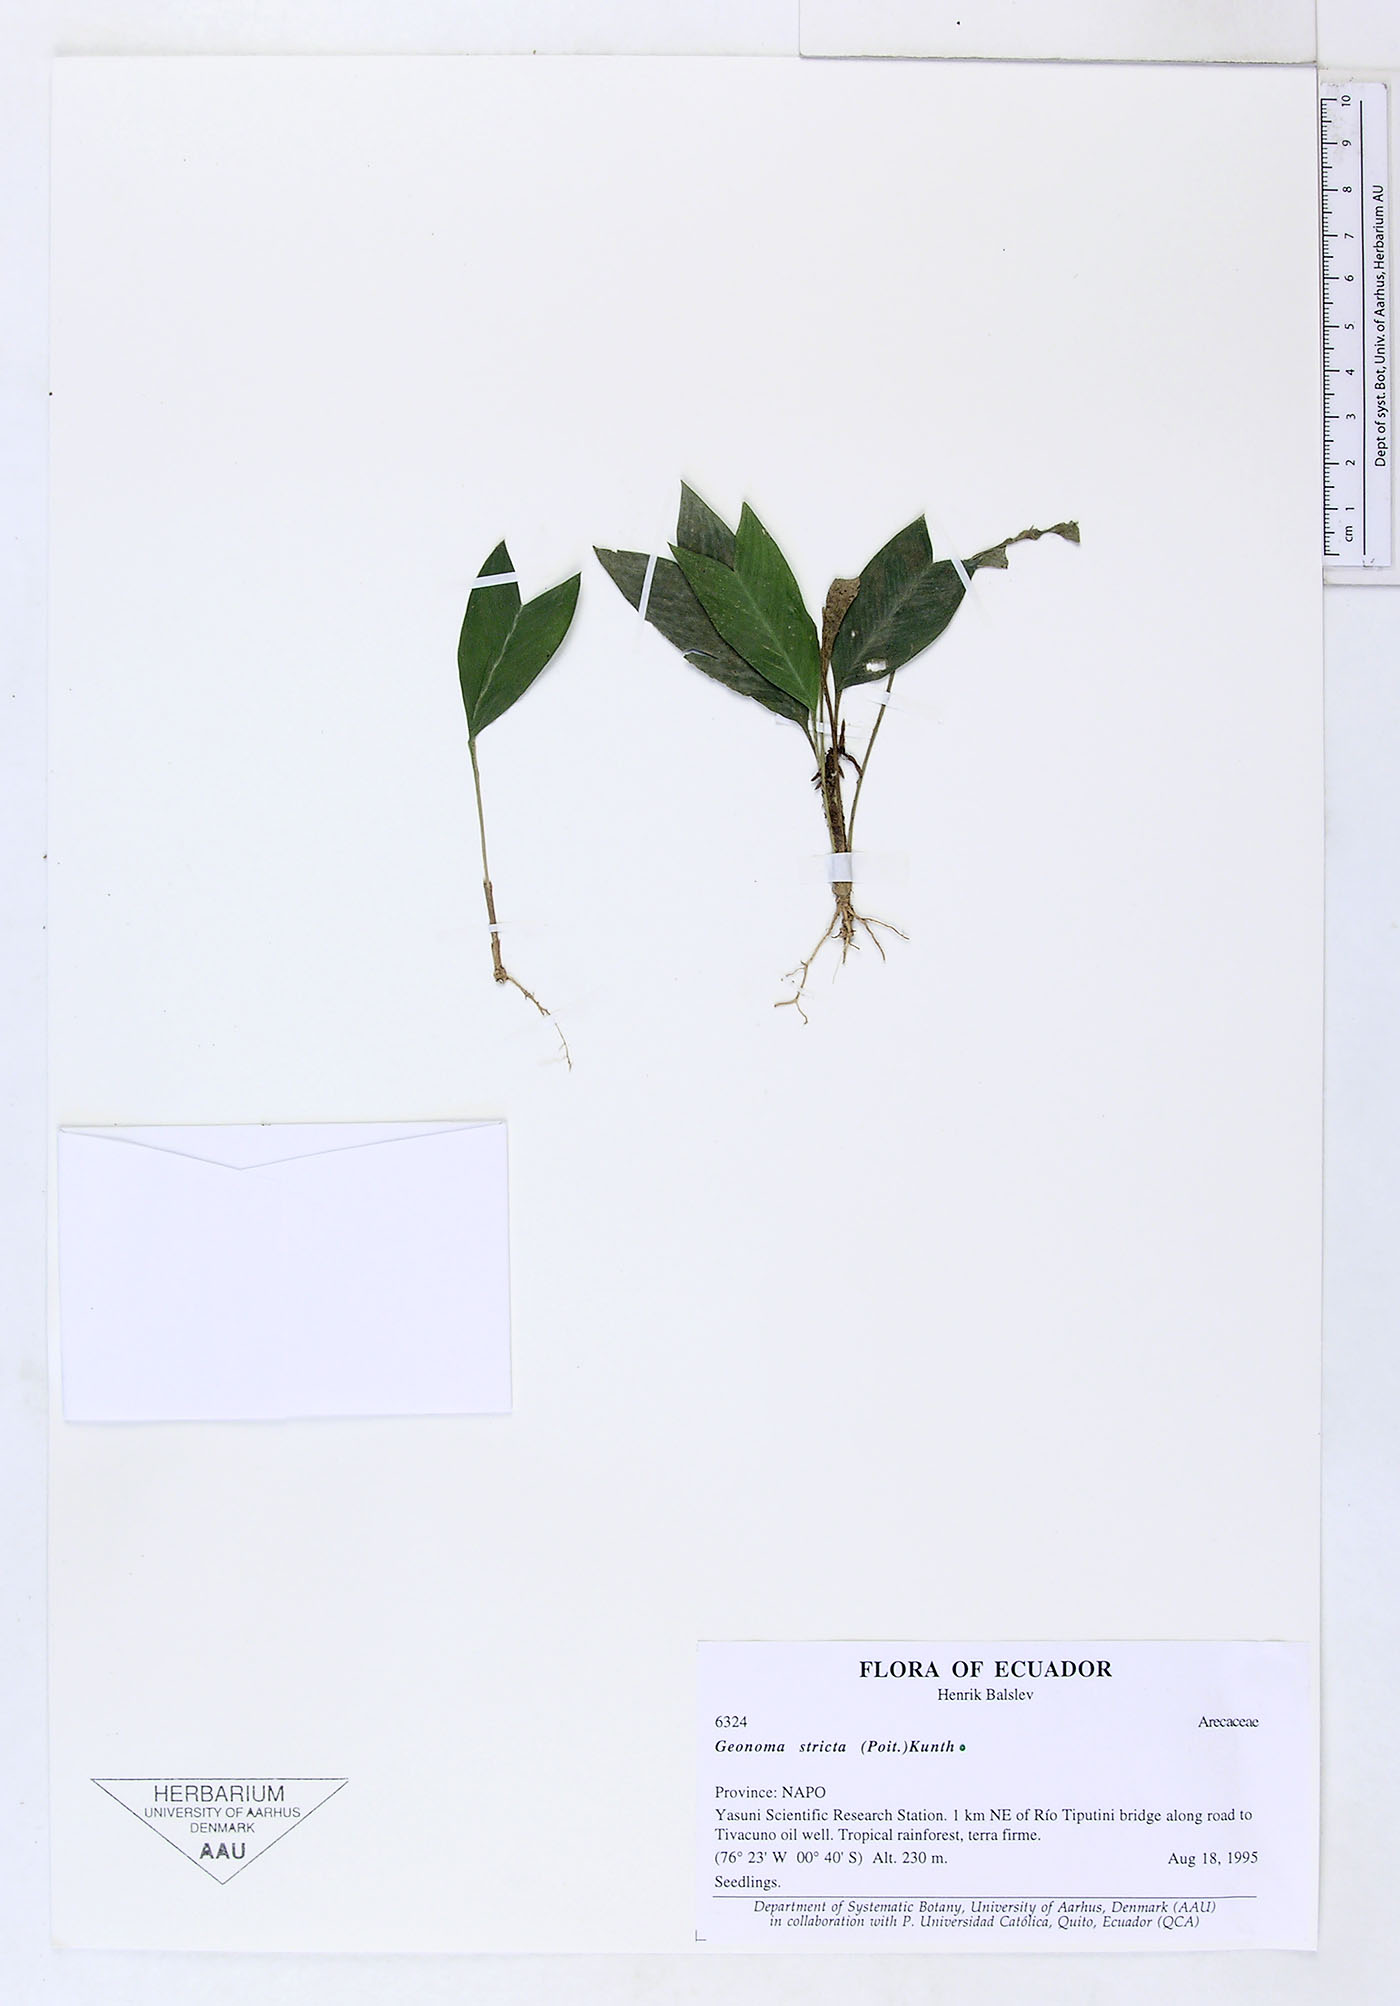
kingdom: Plantae
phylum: Tracheophyta
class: Liliopsida
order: Arecales
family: Arecaceae
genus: Geonoma
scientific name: Geonoma stricta
